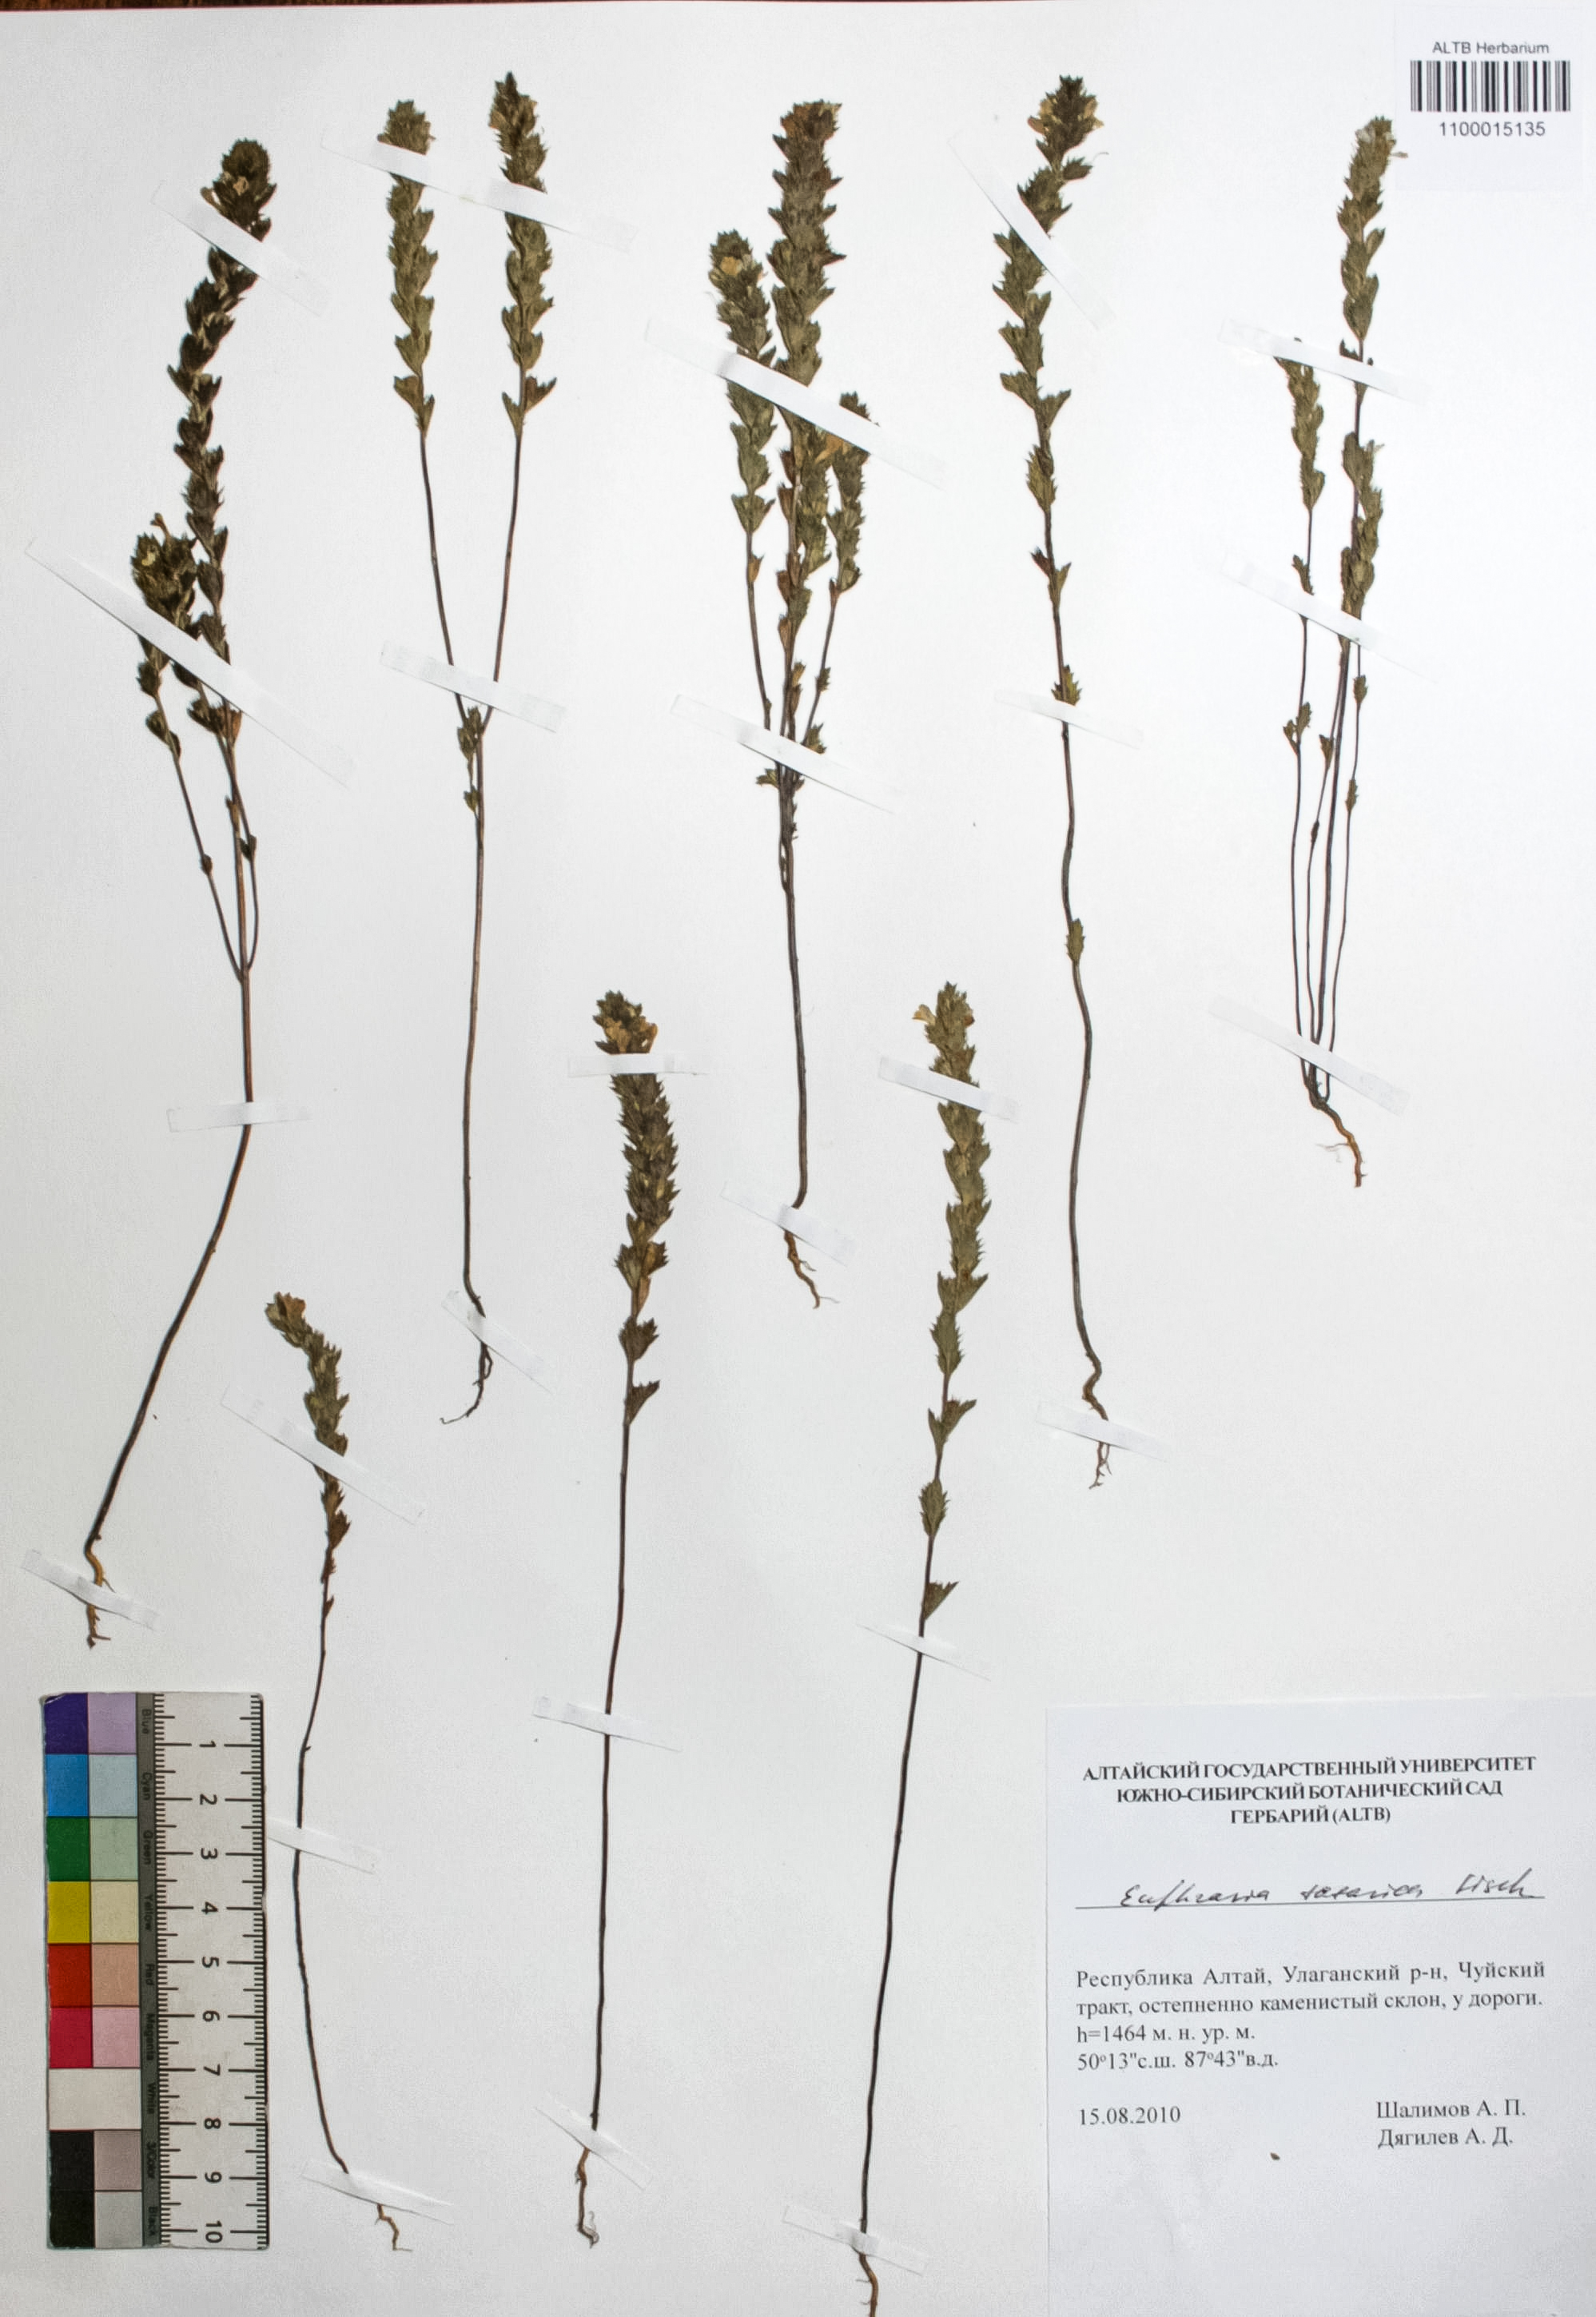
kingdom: Plantae
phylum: Tracheophyta
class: Magnoliopsida
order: Lamiales
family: Orobanchaceae
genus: Euphrasia
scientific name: Euphrasia pectinata
